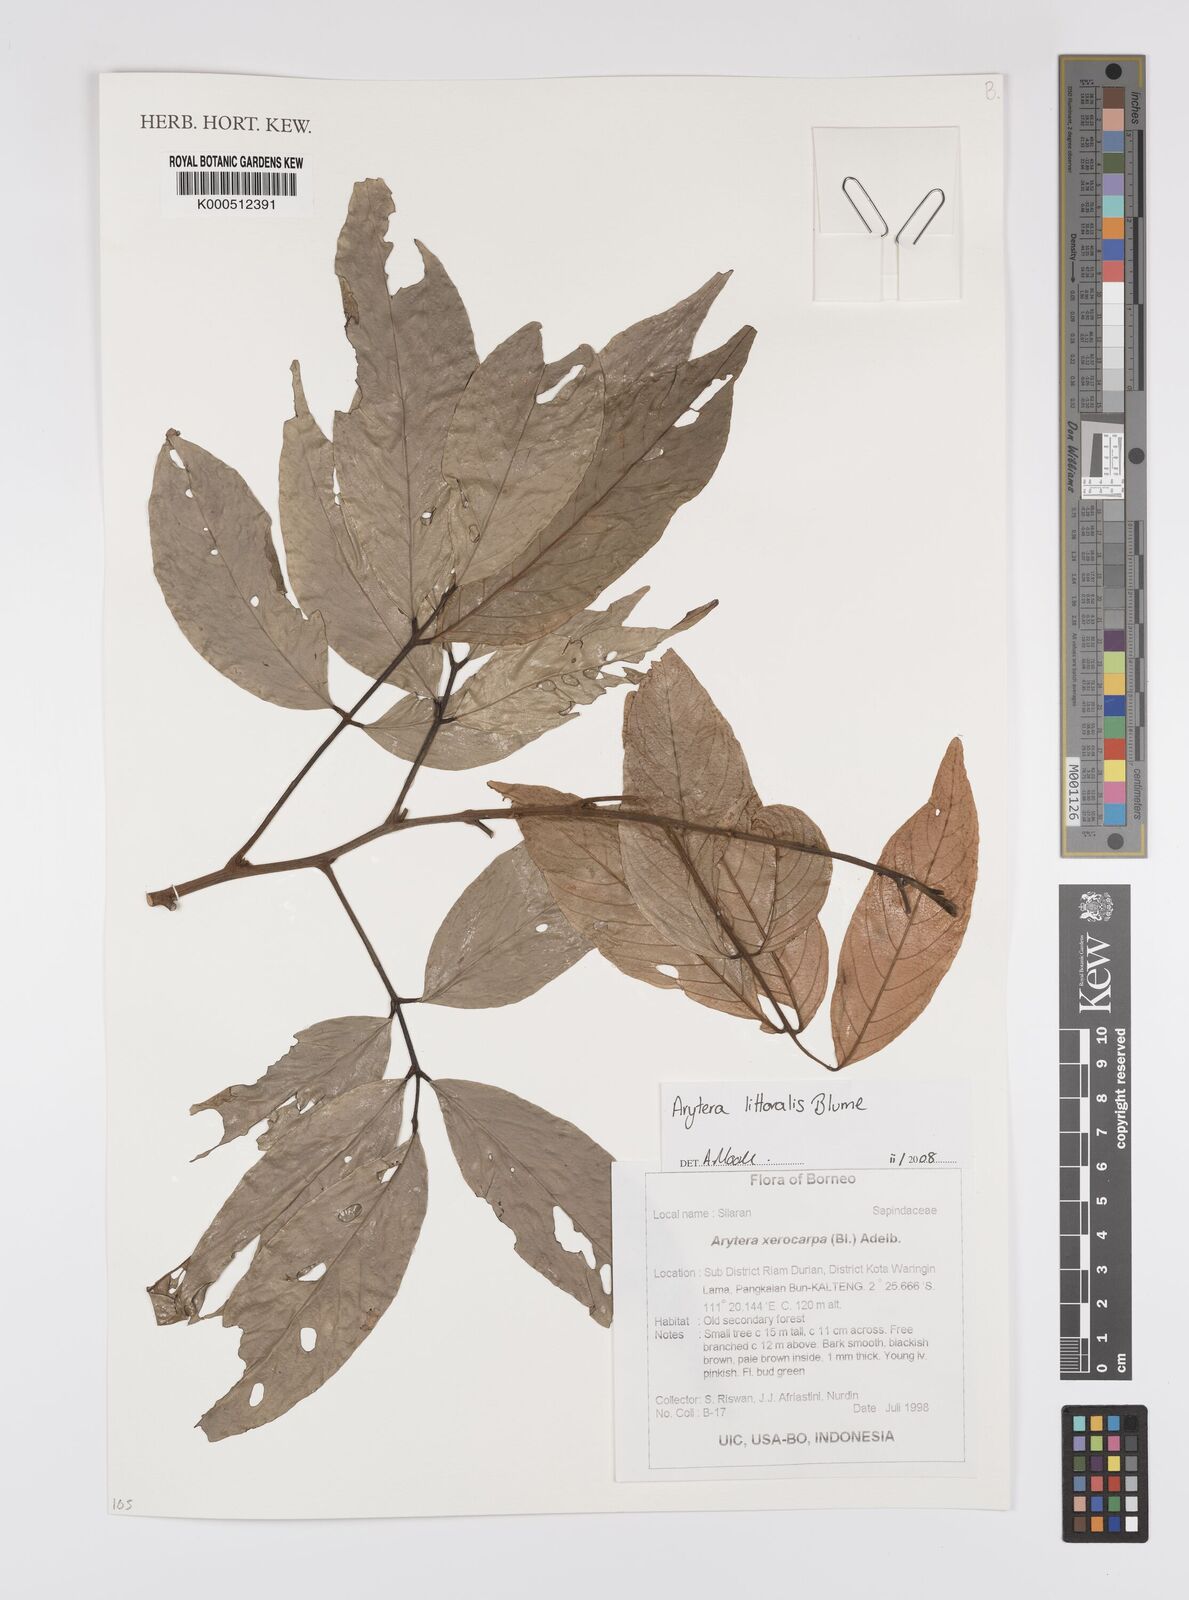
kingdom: Plantae
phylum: Tracheophyta
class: Magnoliopsida
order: Sapindales
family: Sapindaceae
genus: Arytera
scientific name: Arytera litoralis
